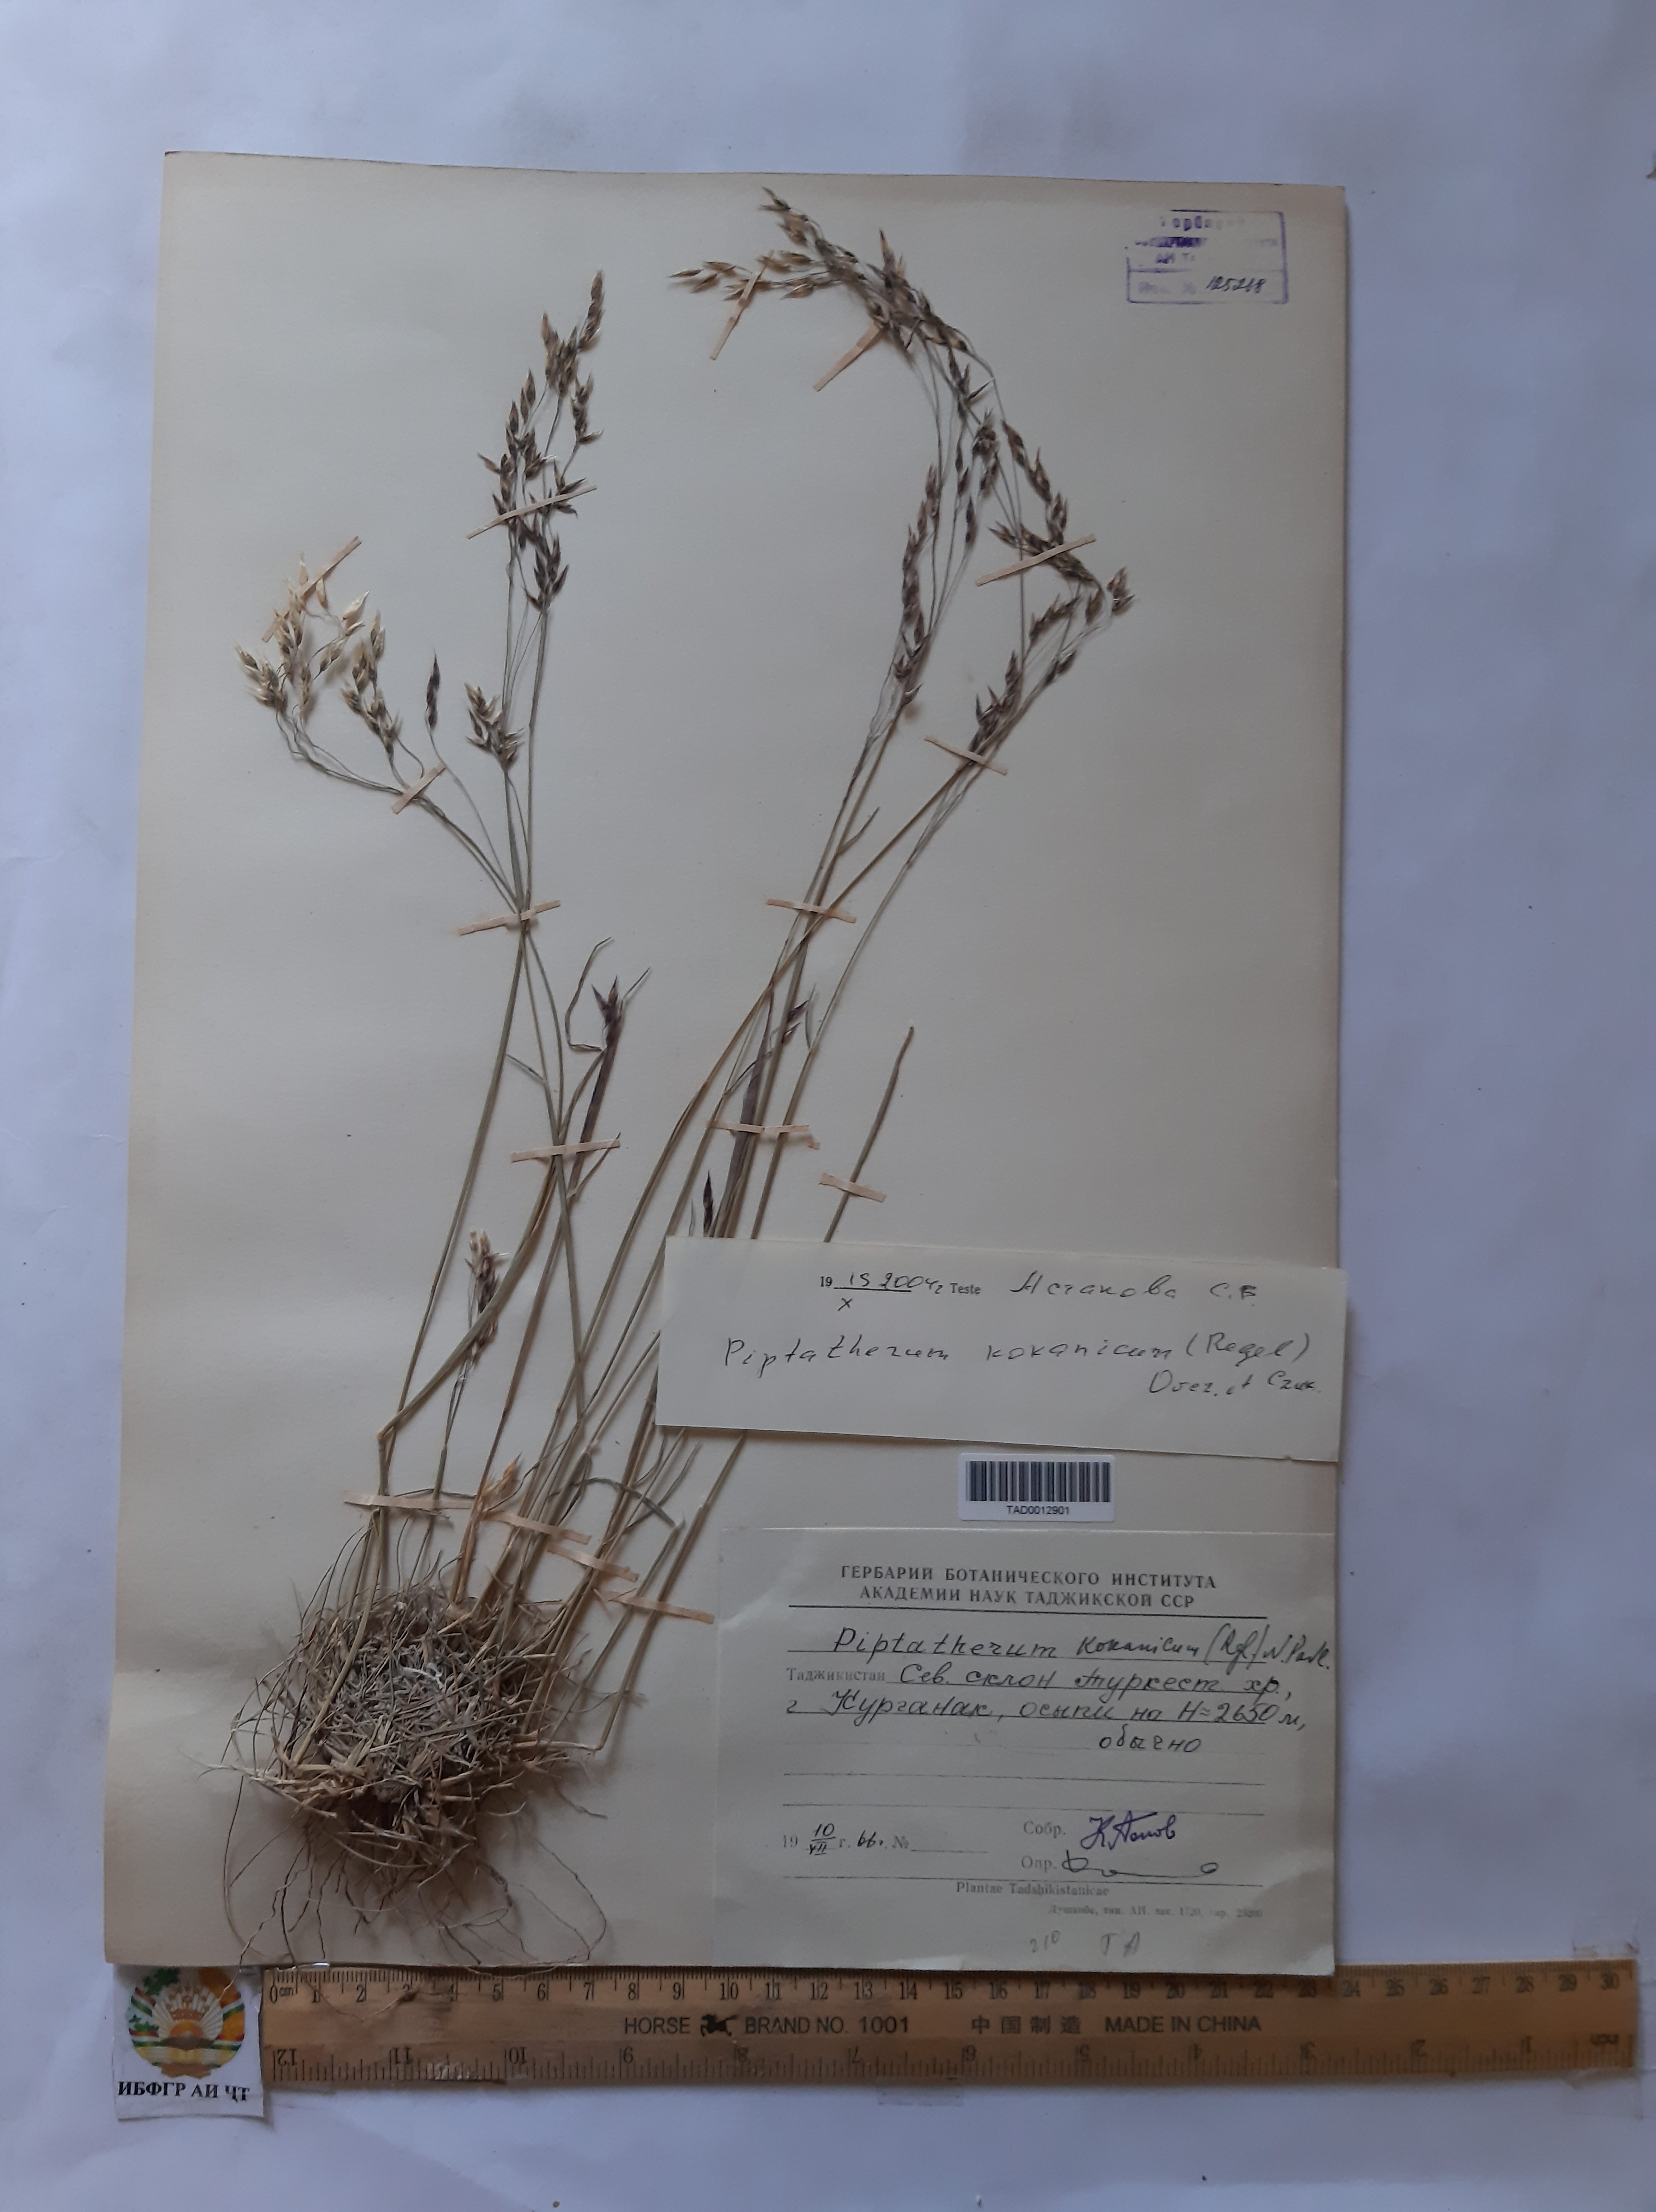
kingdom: Plantae
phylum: Tracheophyta
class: Liliopsida
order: Poales
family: Poaceae
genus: Piptatherum
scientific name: Piptatherum songaricum
